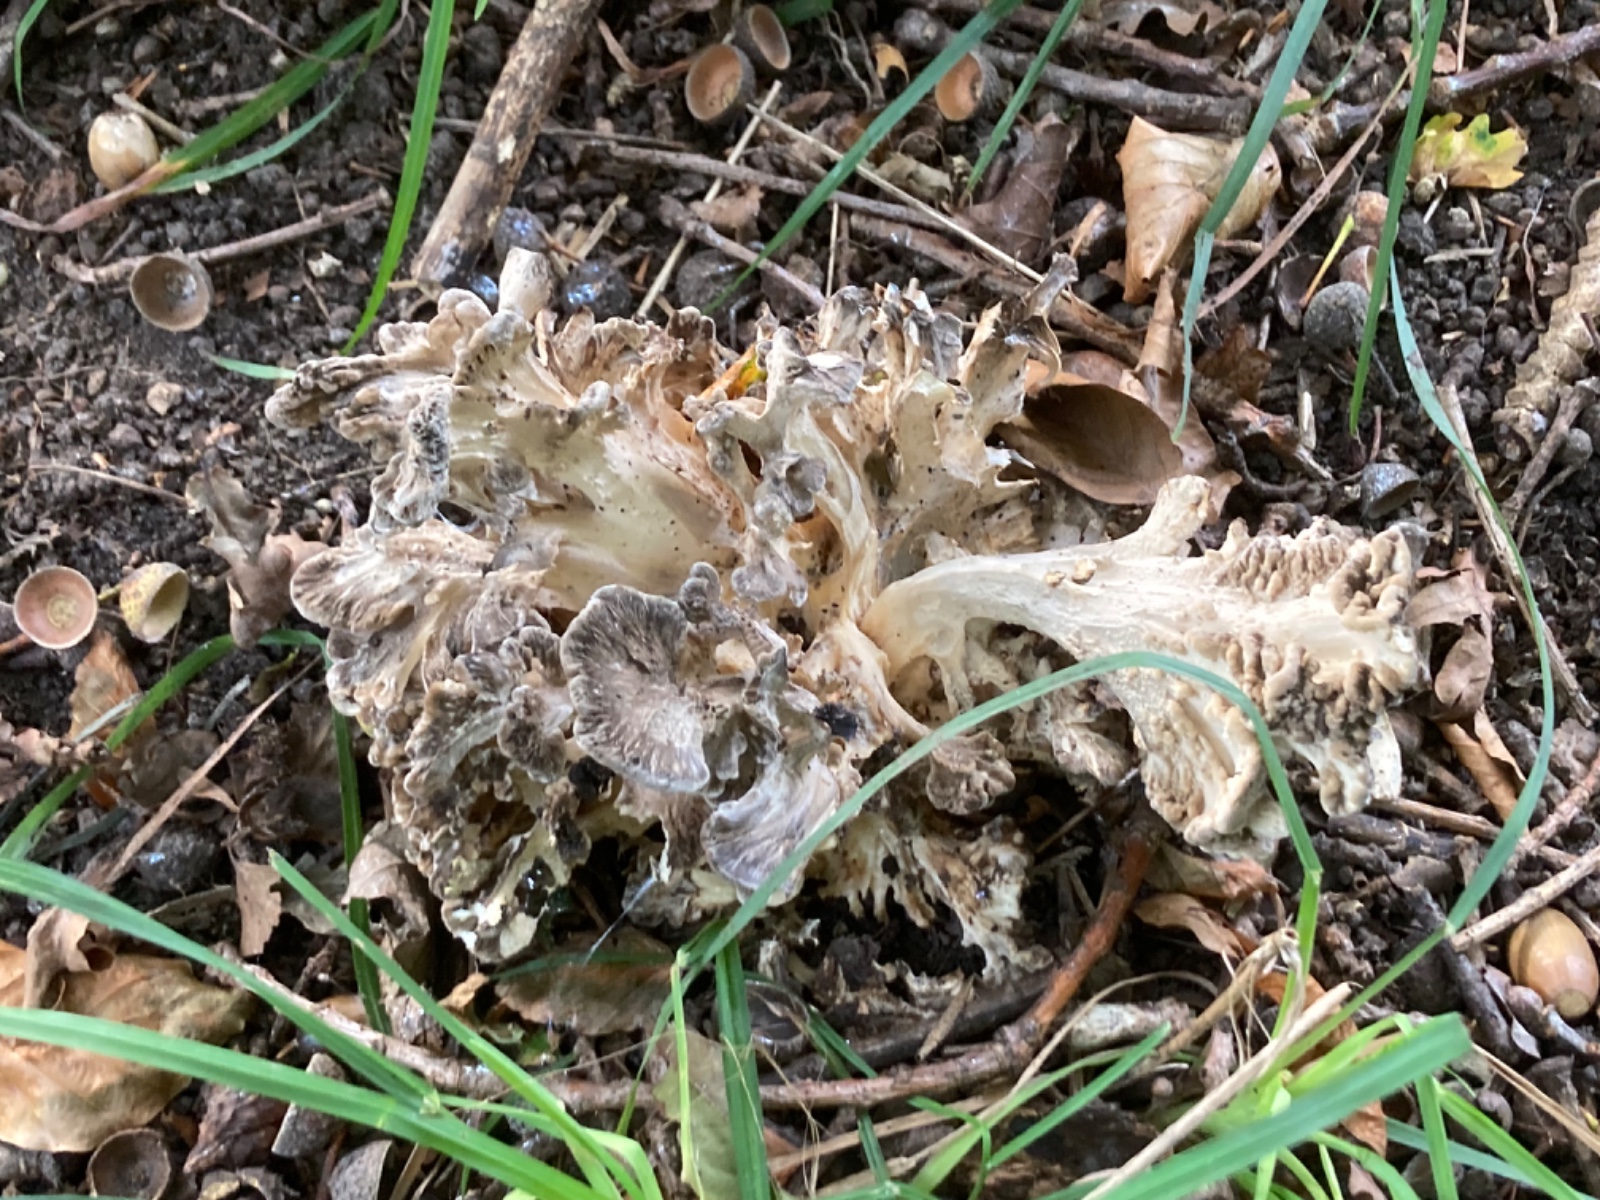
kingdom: Fungi
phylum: Basidiomycota
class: Agaricomycetes
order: Polyporales
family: Grifolaceae
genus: Grifola
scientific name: Grifola frondosa
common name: tueporesvamp
